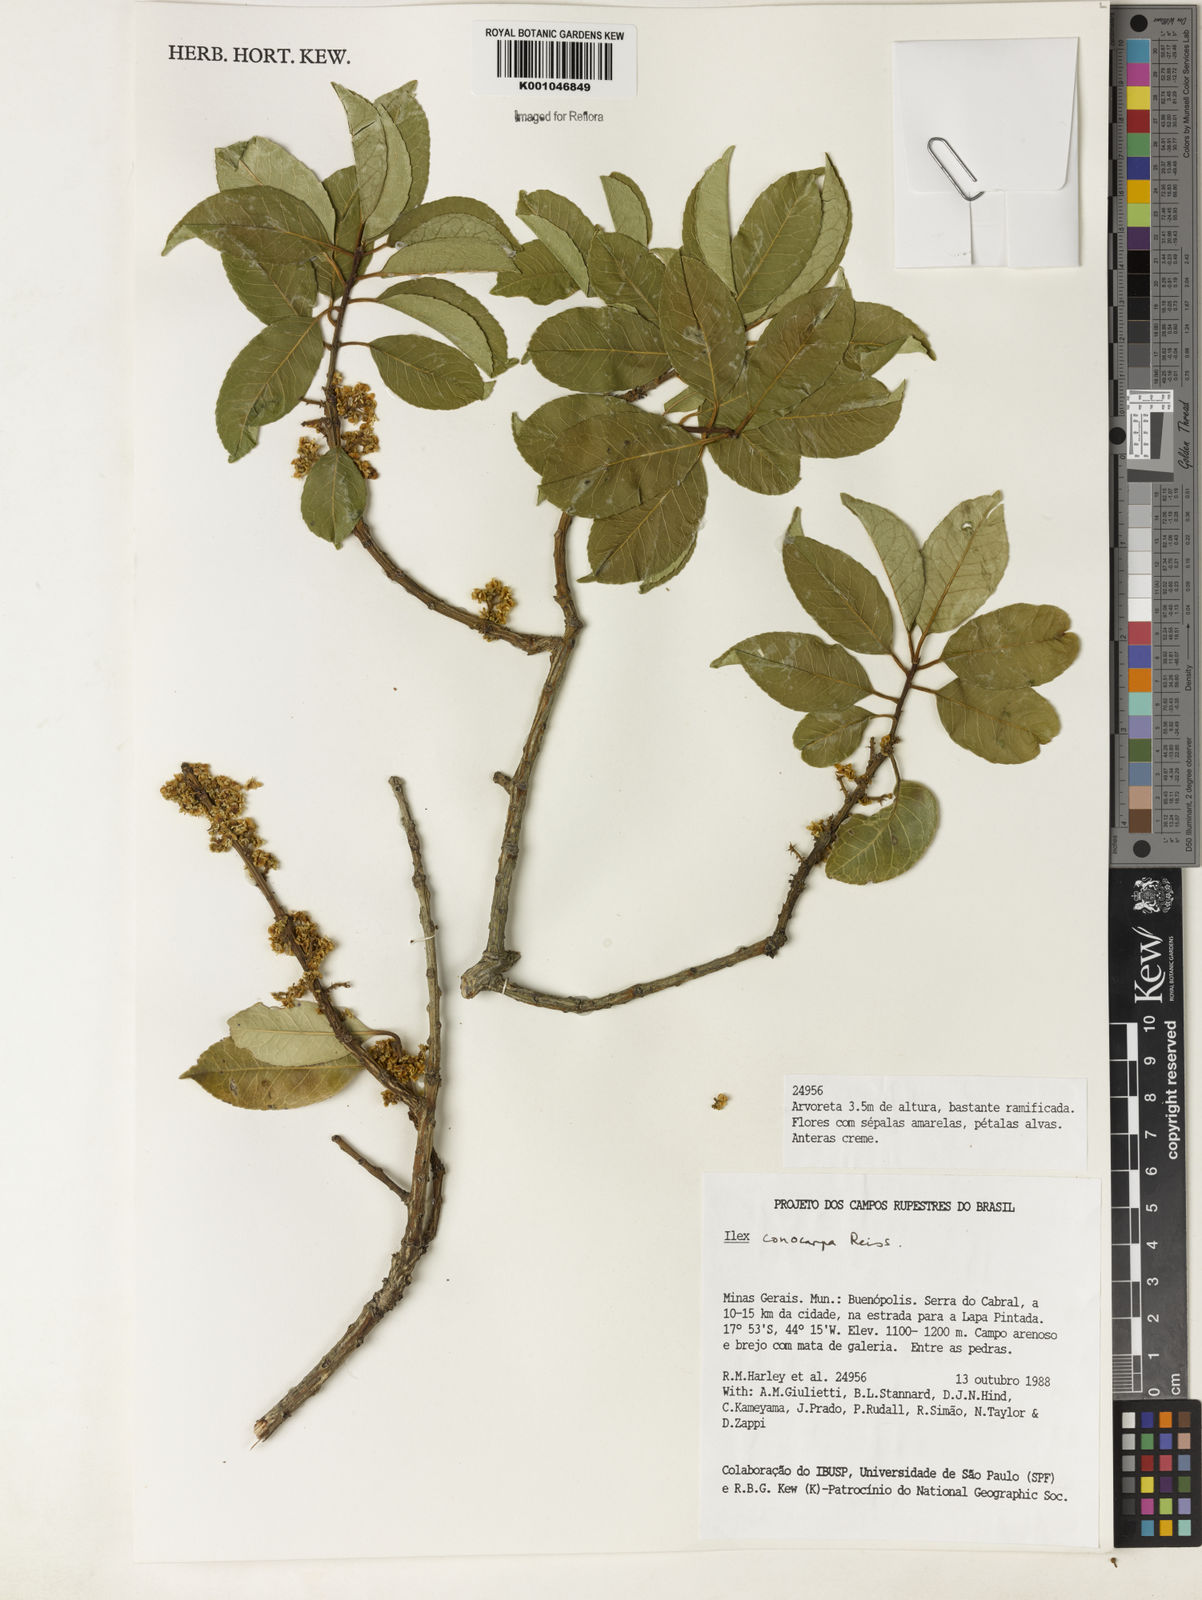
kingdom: Plantae
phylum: Tracheophyta
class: Magnoliopsida
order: Aquifoliales
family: Aquifoliaceae
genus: Ilex
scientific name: Ilex conocarpa
